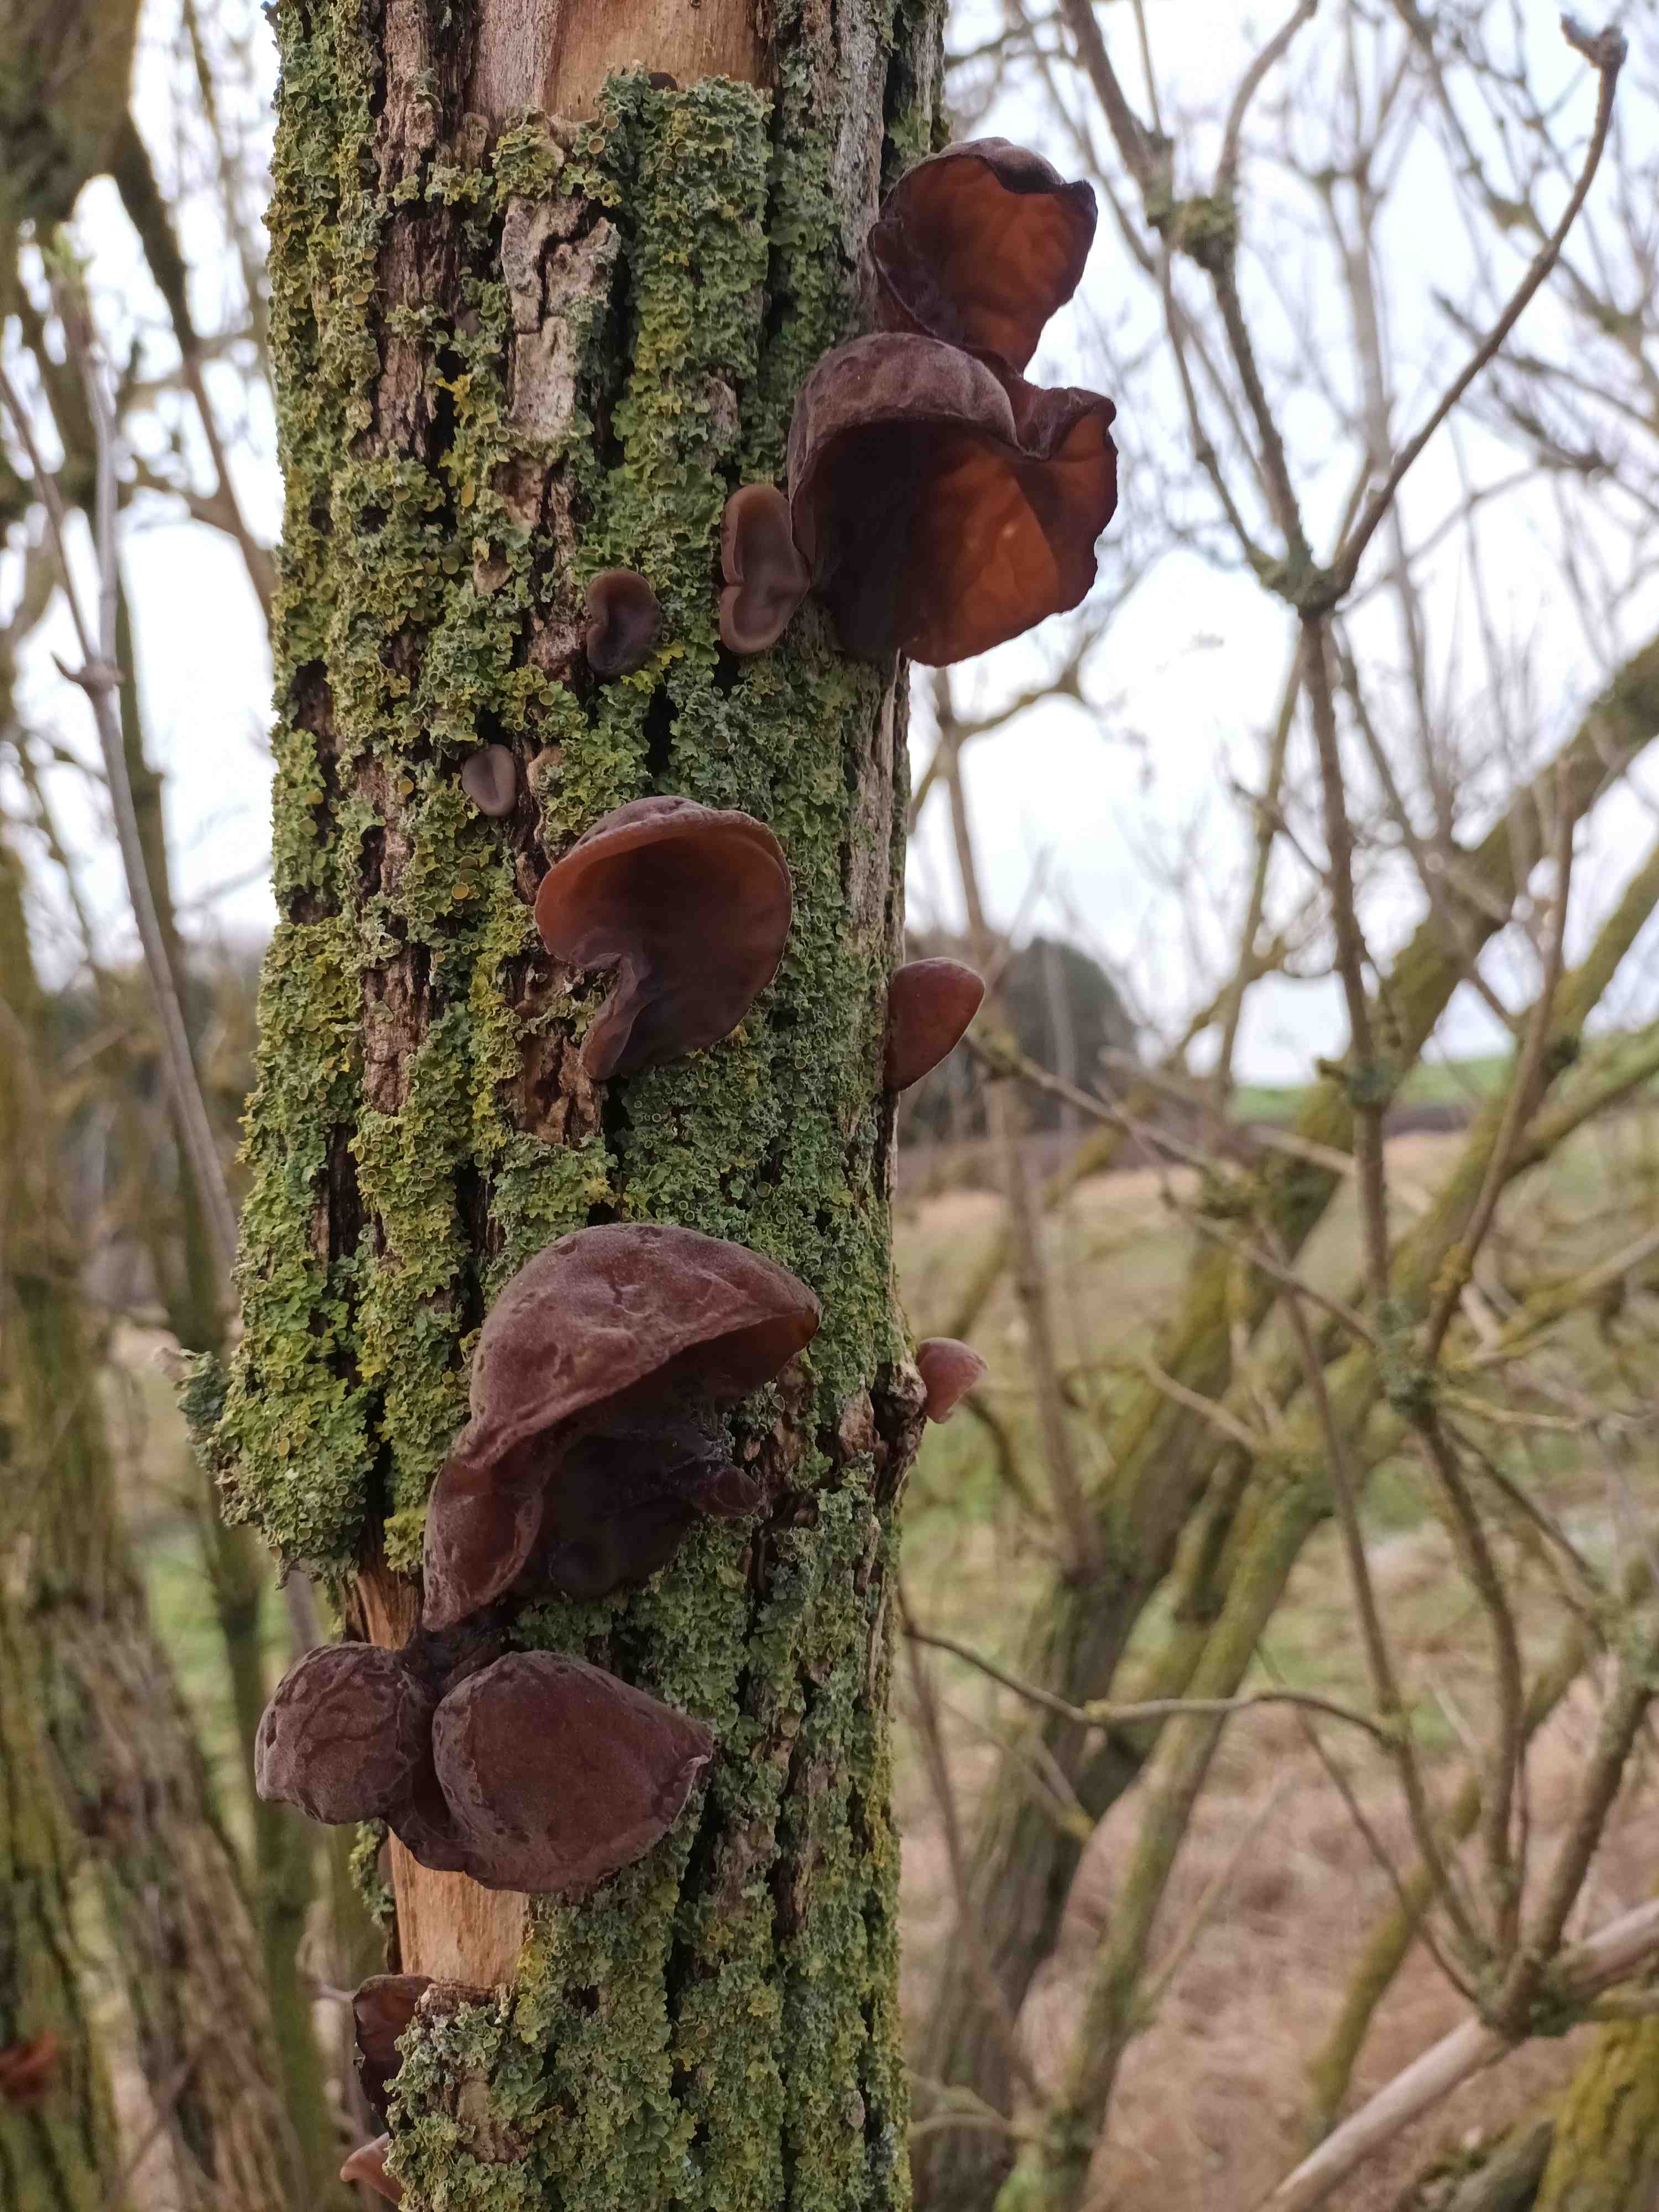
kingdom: Fungi
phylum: Basidiomycota
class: Agaricomycetes
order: Auriculariales
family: Auriculariaceae
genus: Auricularia
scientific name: Auricularia auricula-judae
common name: almindelig judasøre
